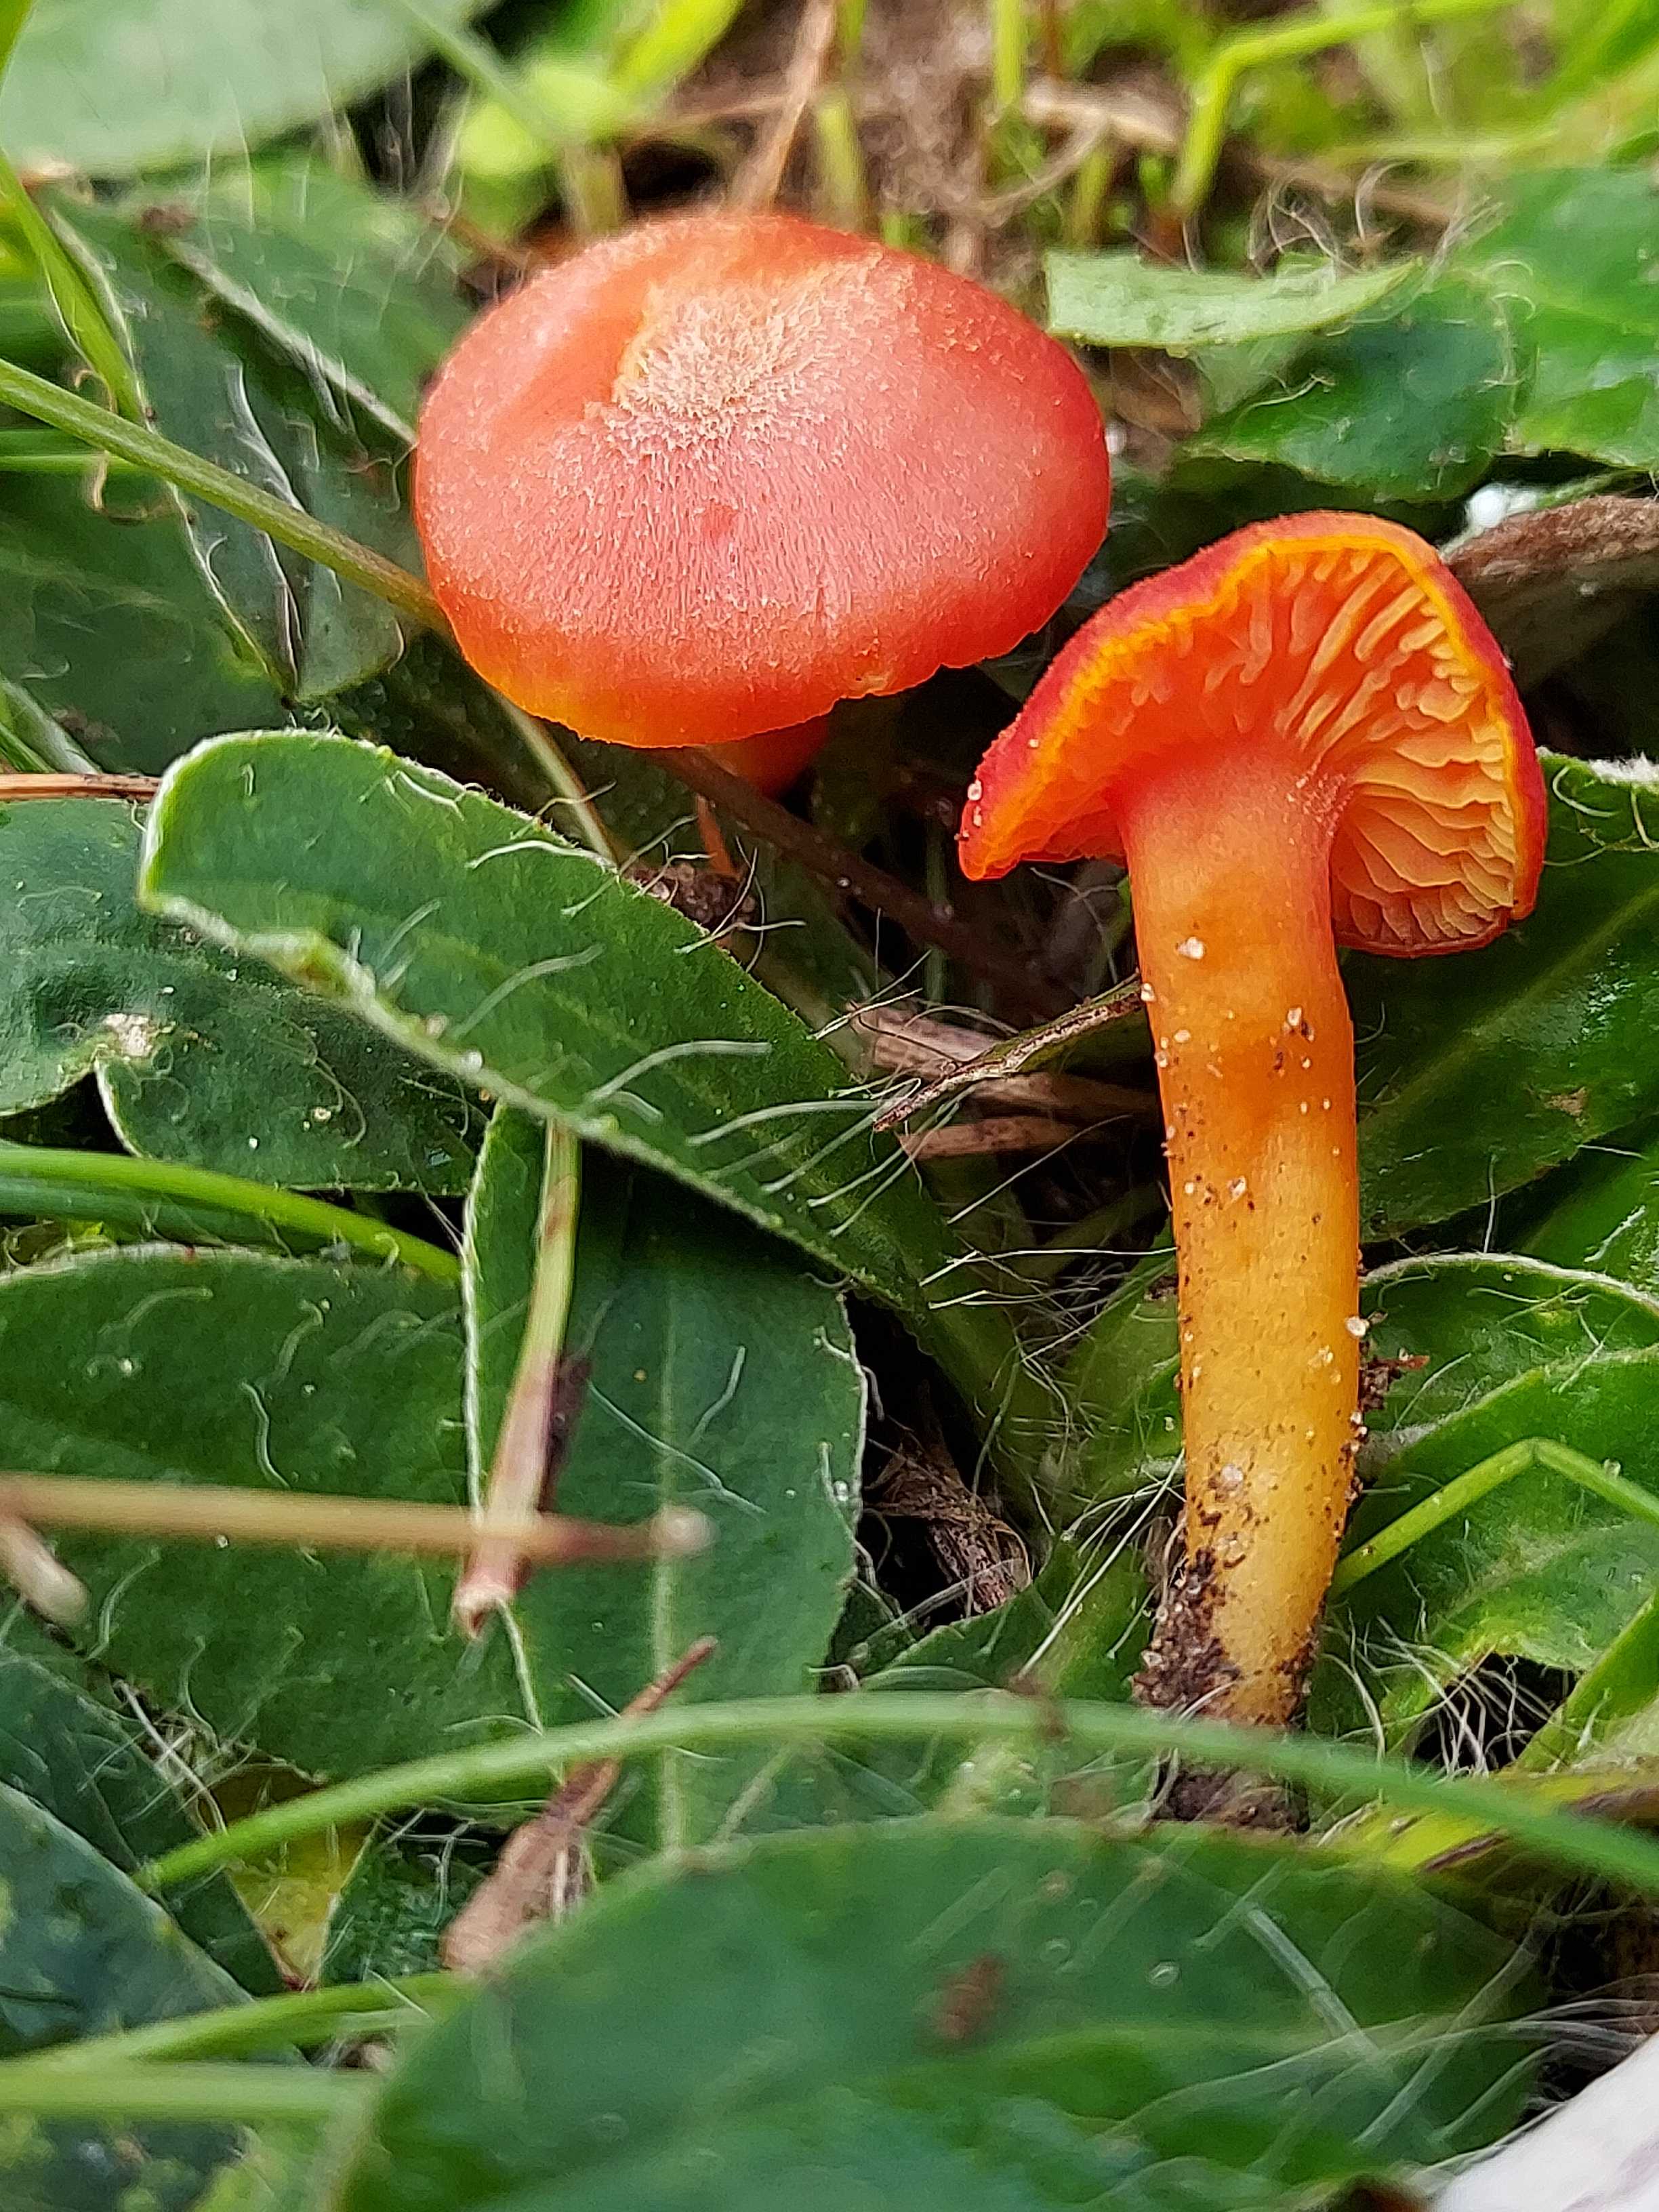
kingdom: Fungi
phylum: Basidiomycota
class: Agaricomycetes
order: Agaricales
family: Hygrophoraceae
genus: Hygrocybe
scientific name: Hygrocybe miniata
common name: mønje-vokshat
